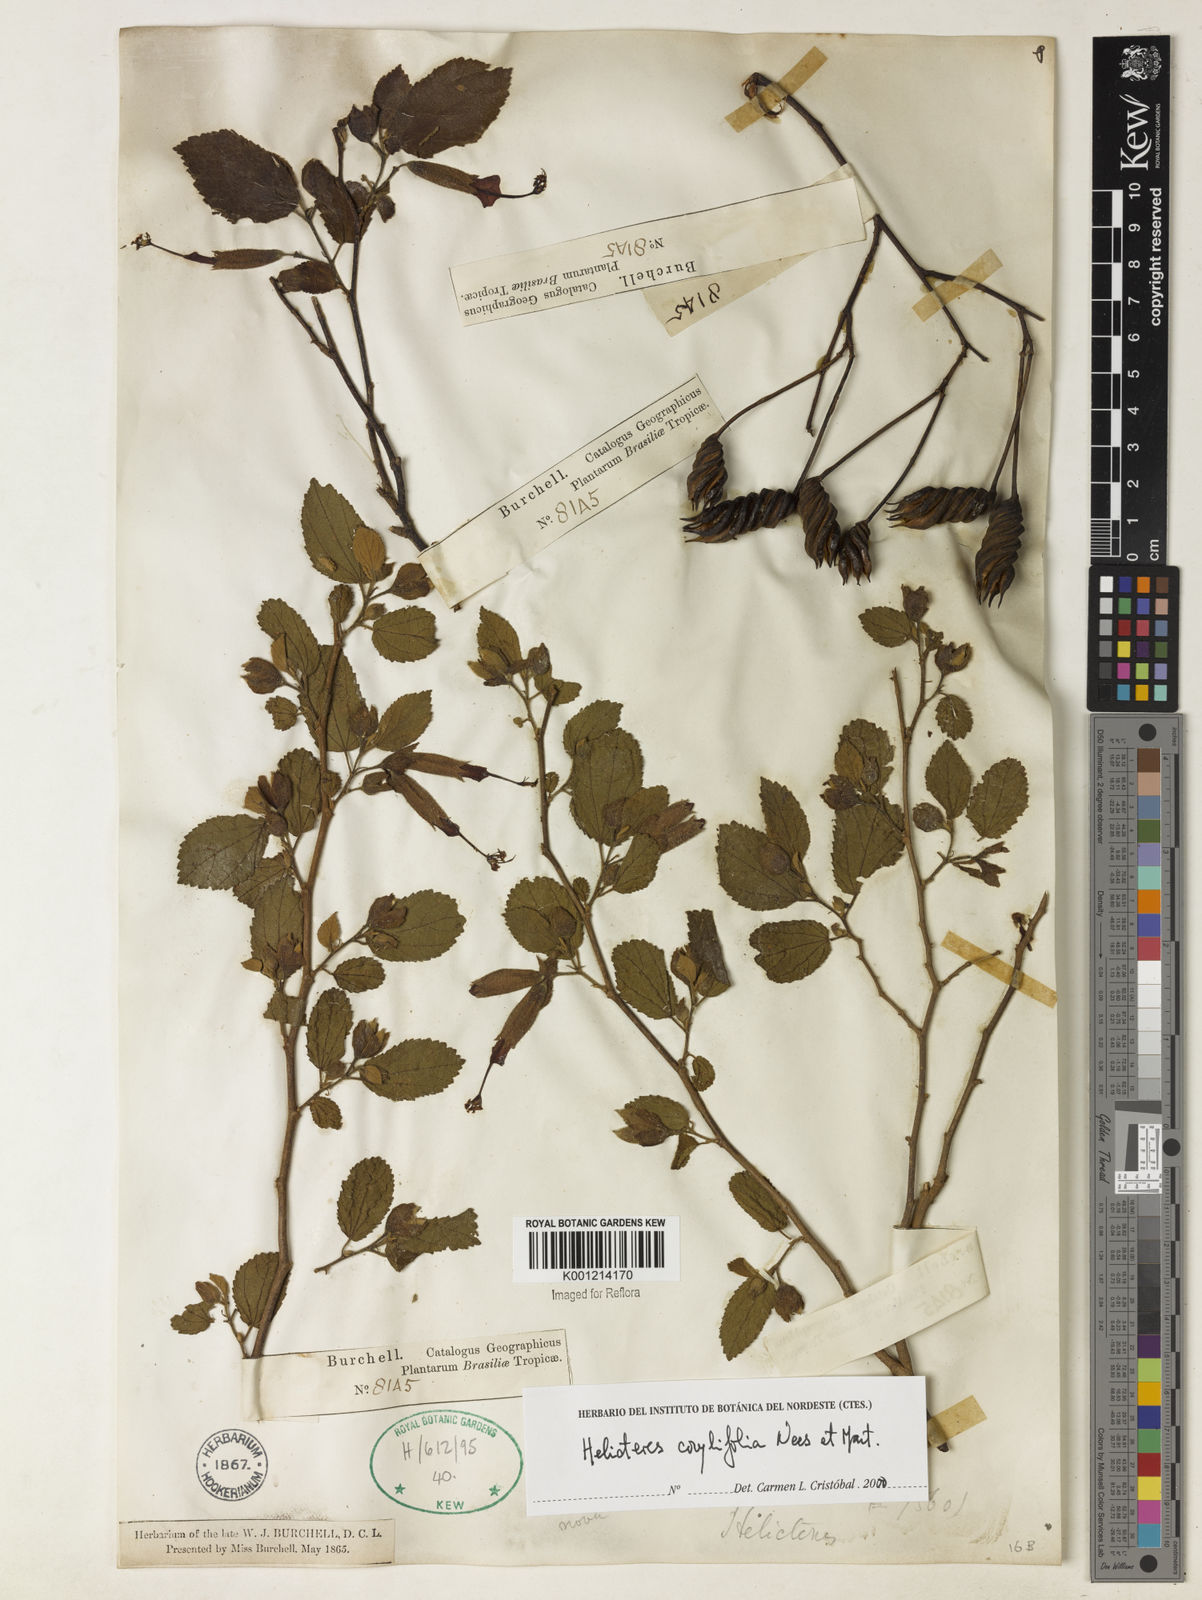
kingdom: Plantae
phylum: Tracheophyta
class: Magnoliopsida
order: Malvales
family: Malvaceae
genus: Helicteres
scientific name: Helicteres corylifolia
